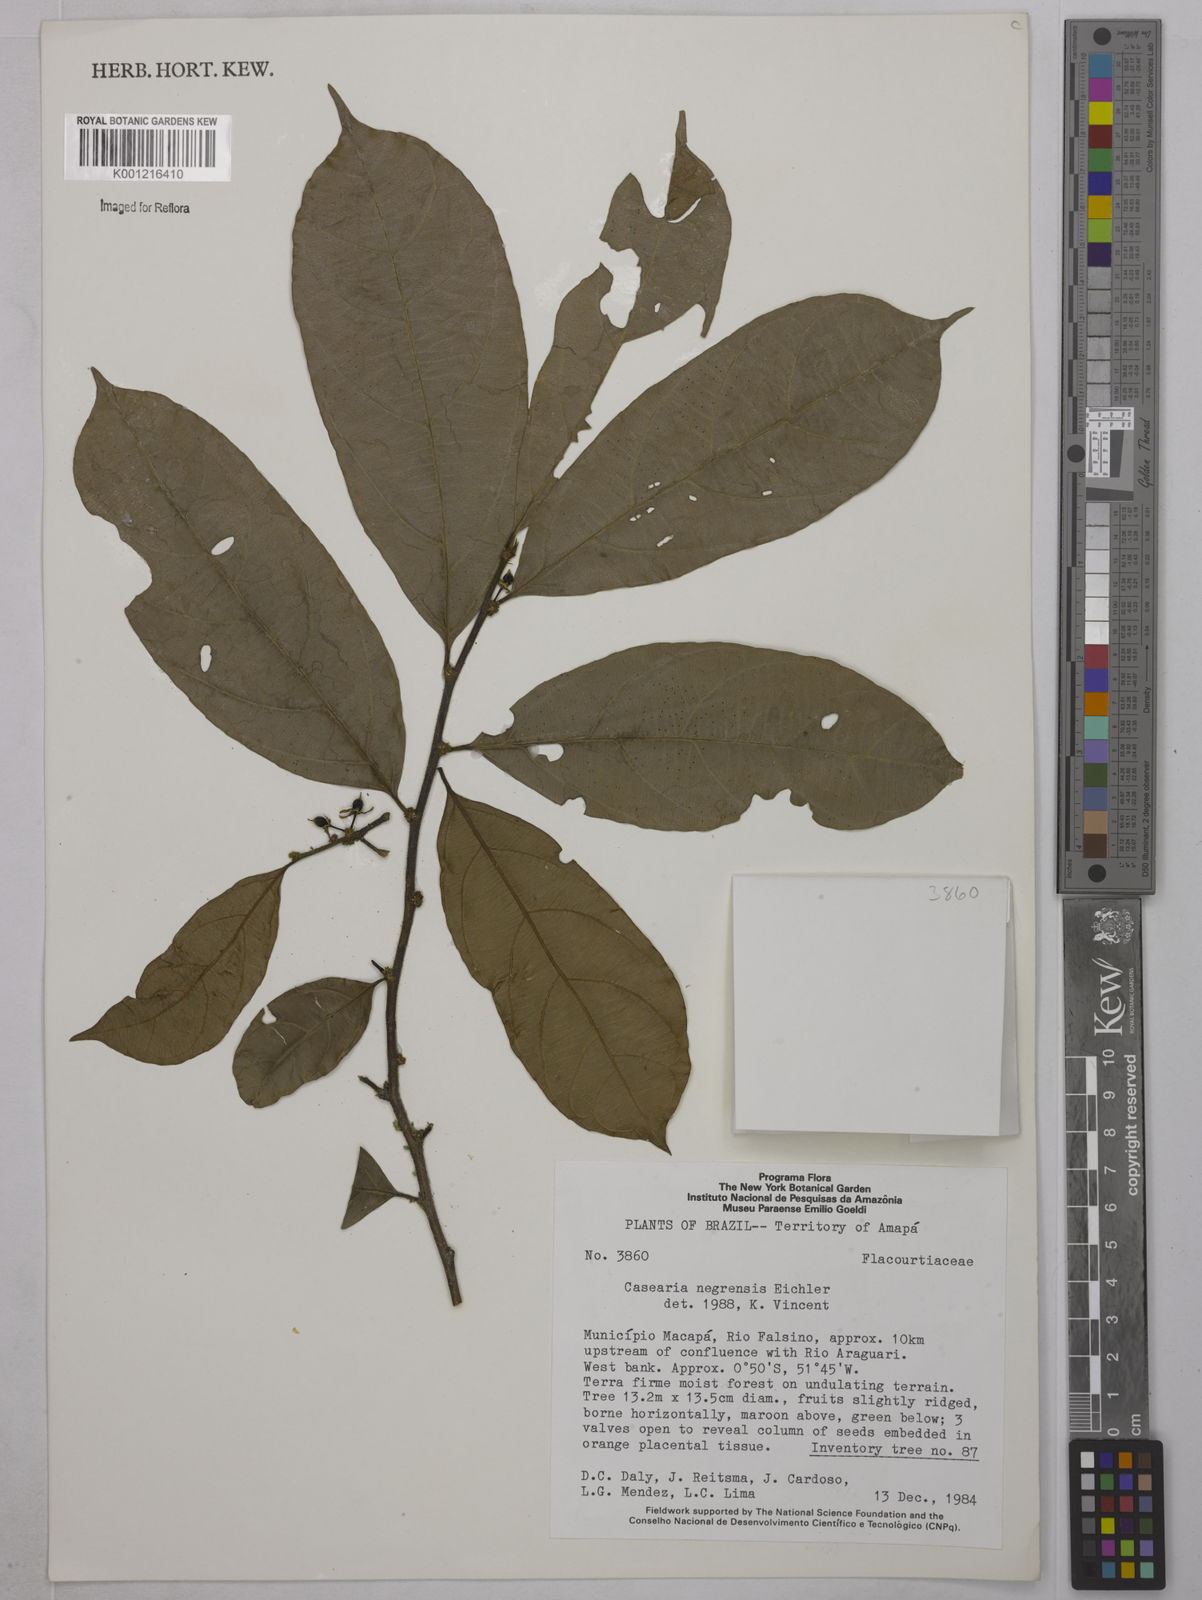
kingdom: Plantae
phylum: Tracheophyta
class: Magnoliopsida
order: Malpighiales
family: Salicaceae
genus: Casearia
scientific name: Casearia negrensis
